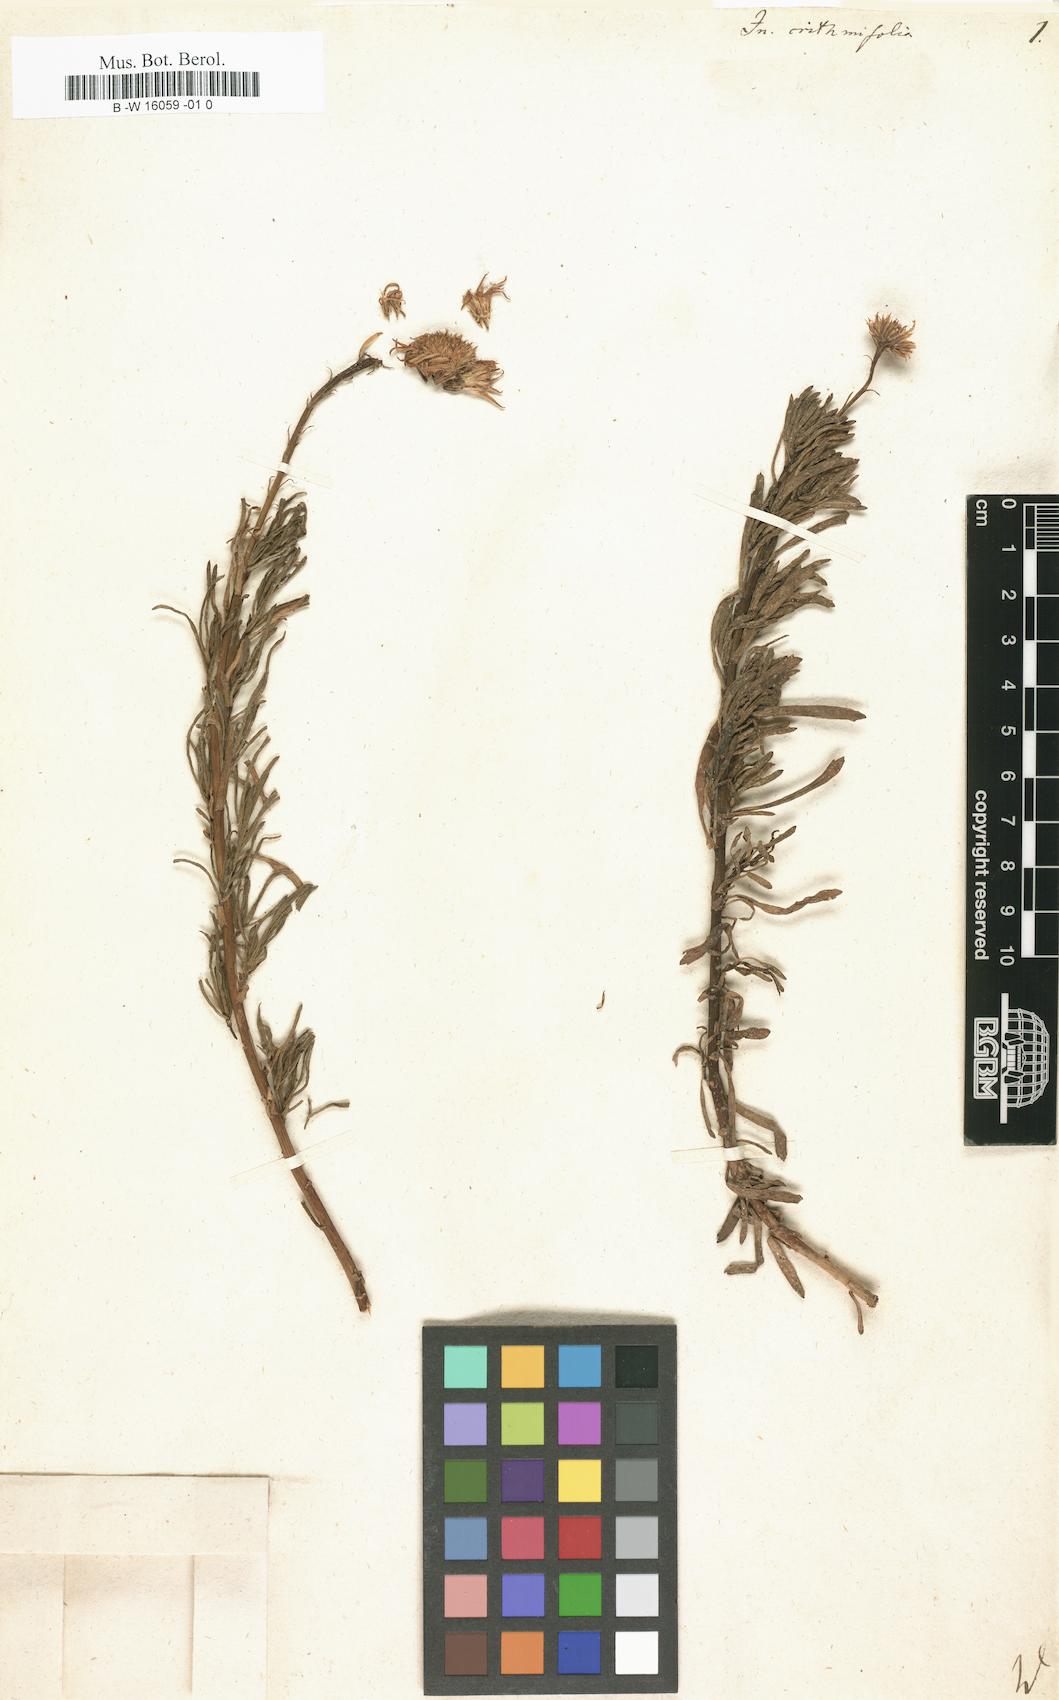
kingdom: Plantae
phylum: Tracheophyta
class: Magnoliopsida
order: Asterales
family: Asteraceae
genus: Inula
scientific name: Inula crithmifolia
